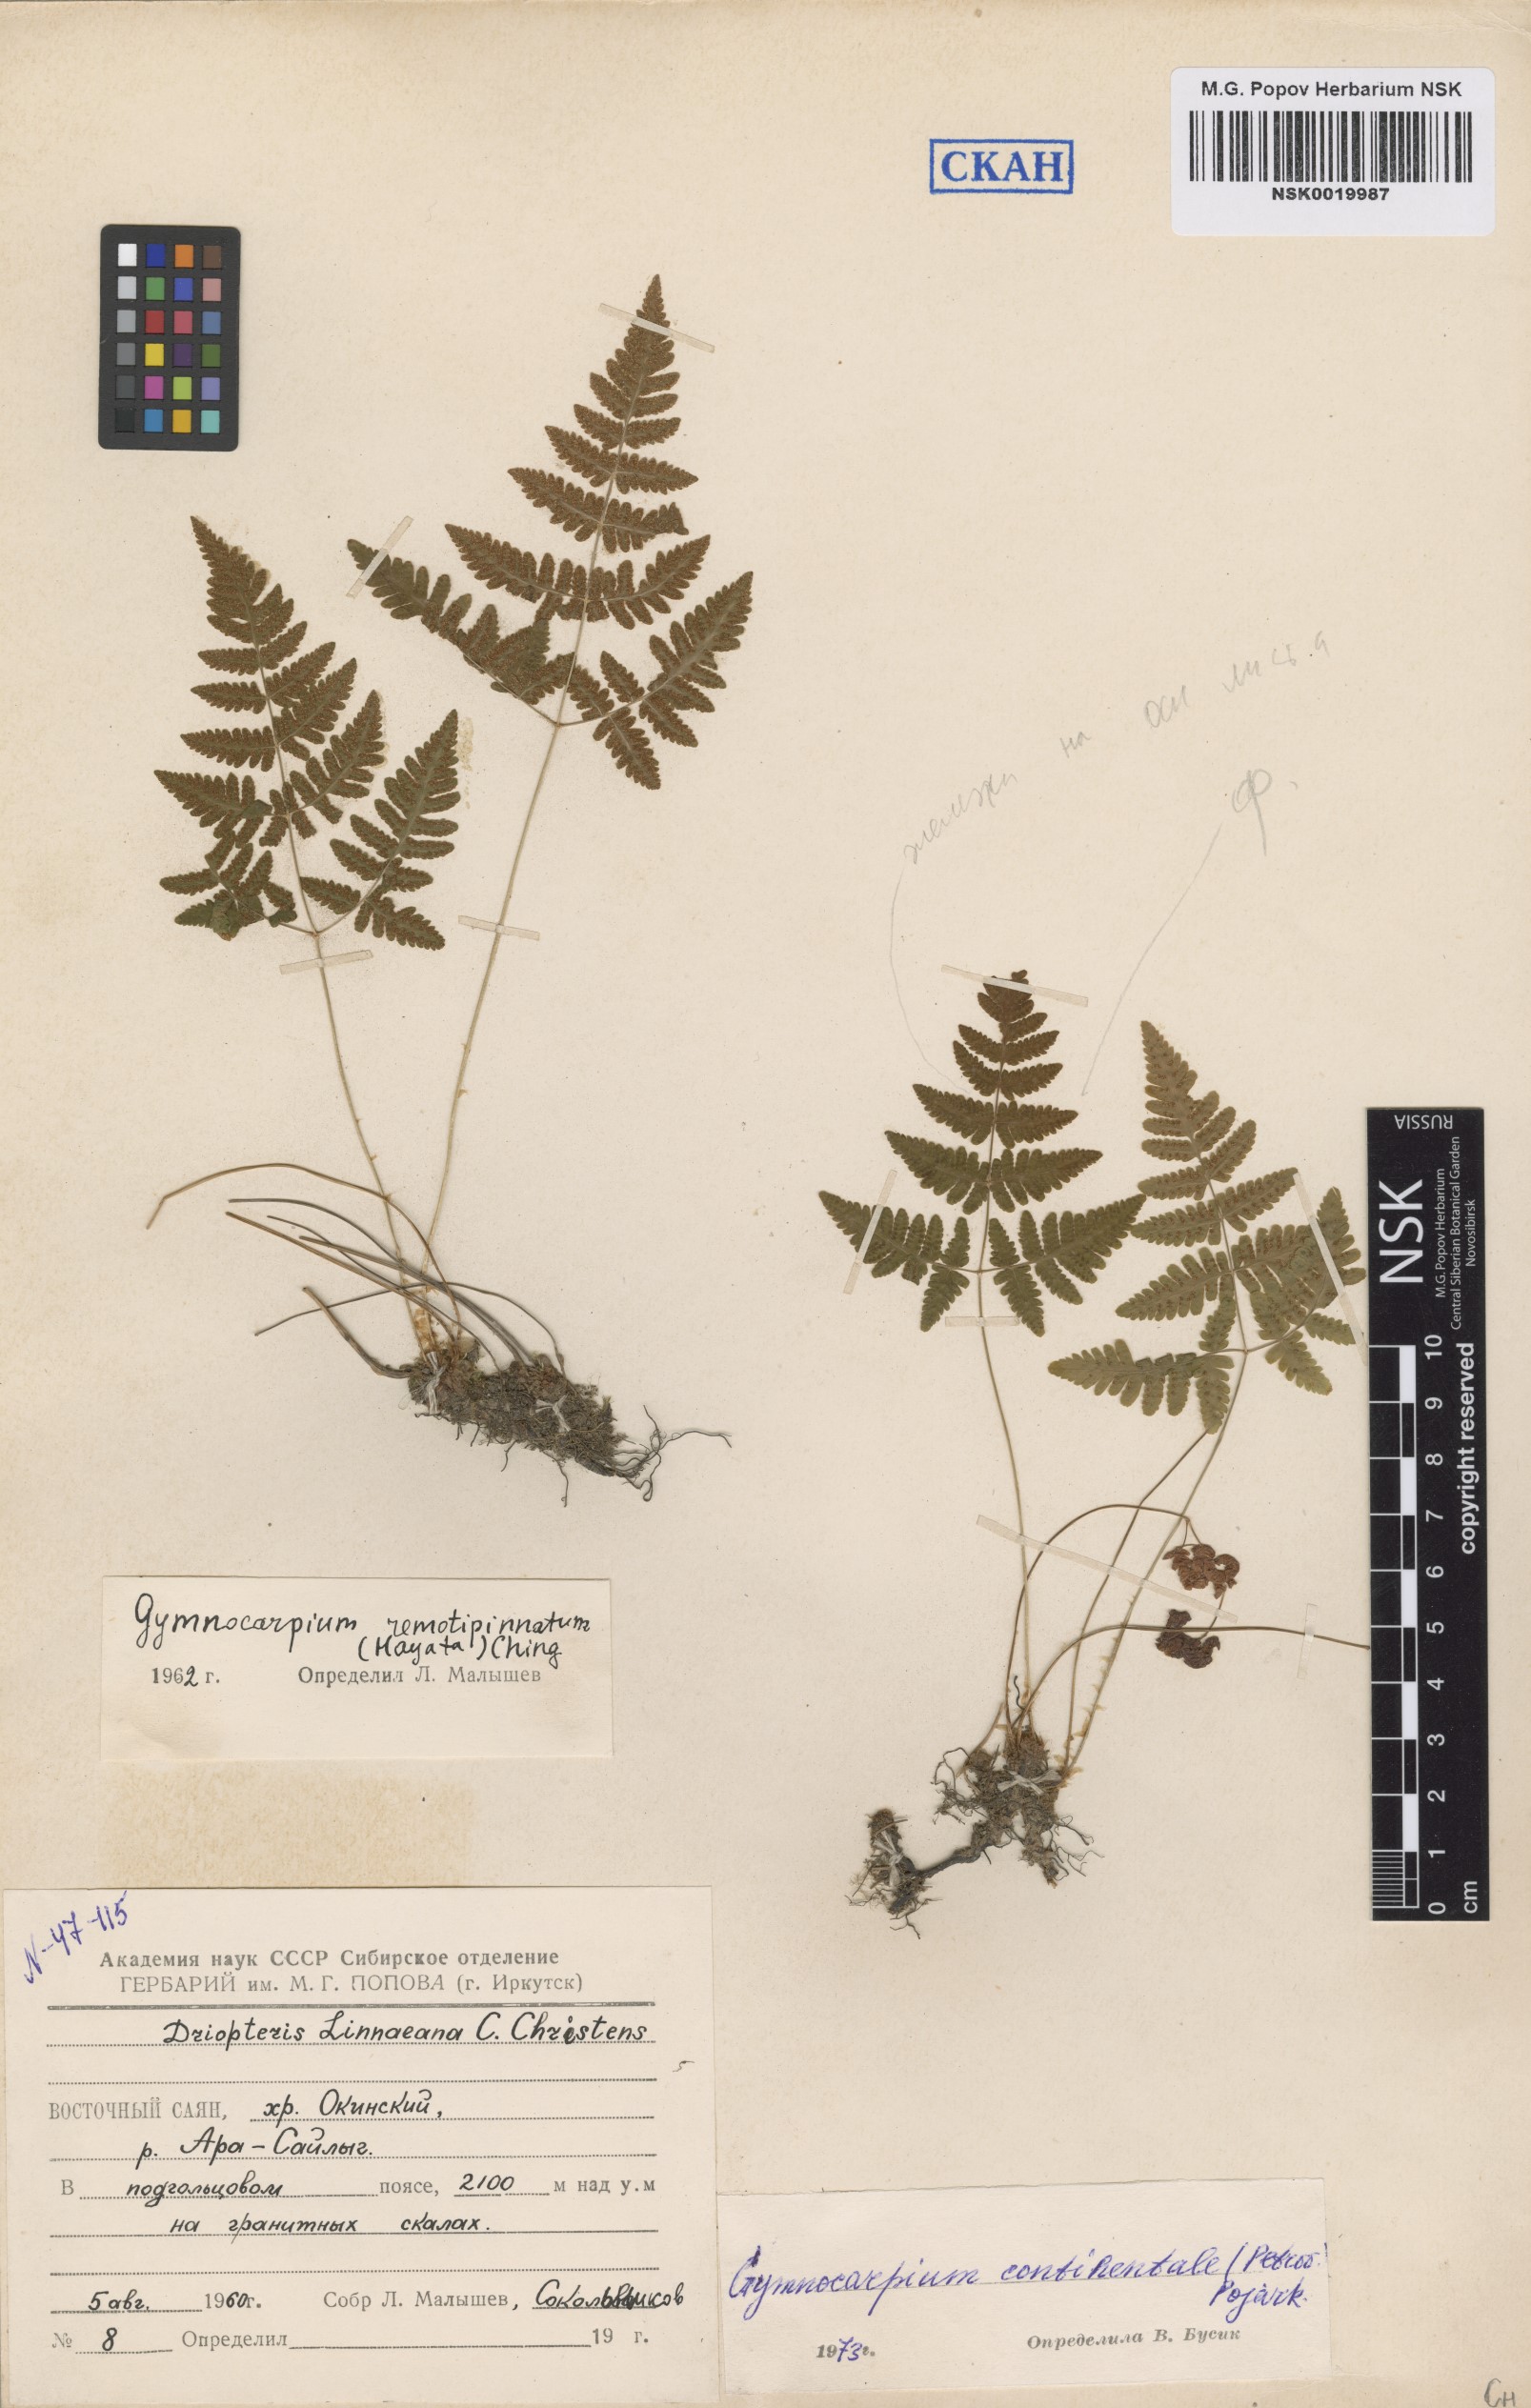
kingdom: Plantae
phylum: Tracheophyta
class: Polypodiopsida
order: Polypodiales
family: Cystopteridaceae
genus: Gymnocarpium
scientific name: Gymnocarpium continentale
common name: Asian oak fern
